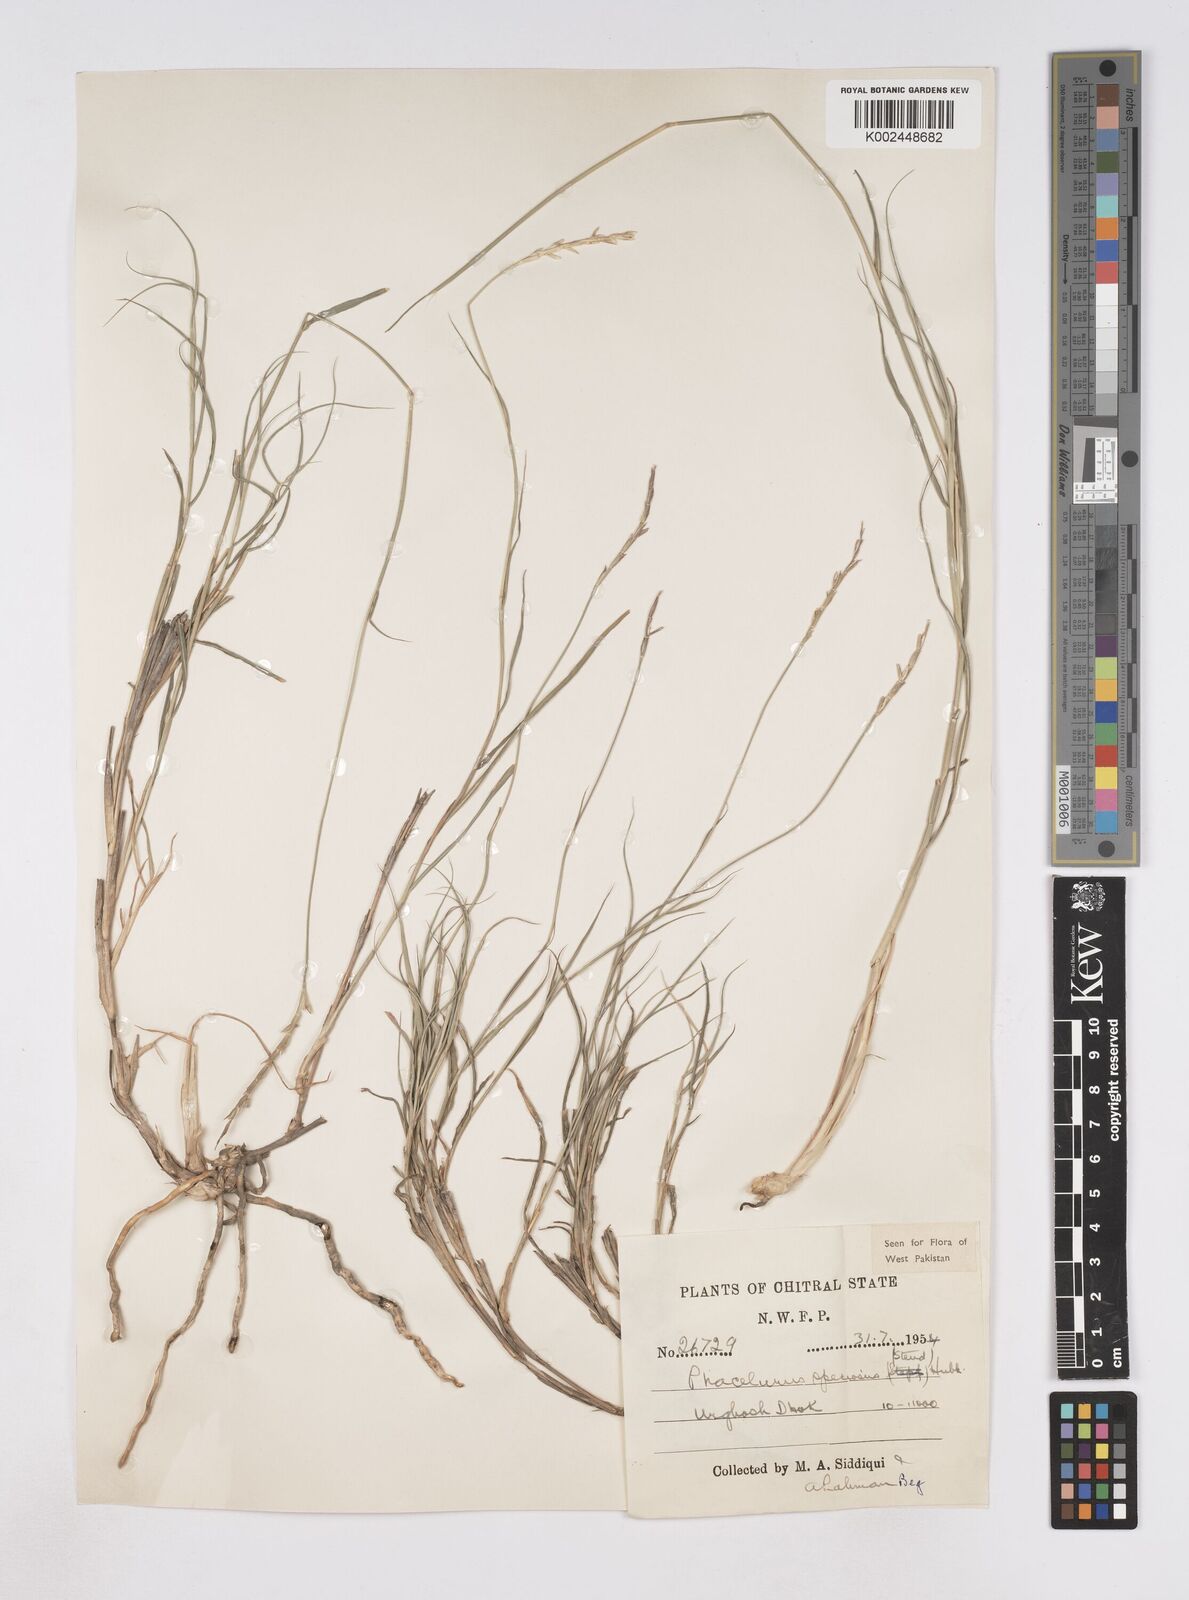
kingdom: Plantae
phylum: Tracheophyta
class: Liliopsida
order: Poales
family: Poaceae
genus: Phacelurus
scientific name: Phacelurus speciosus
